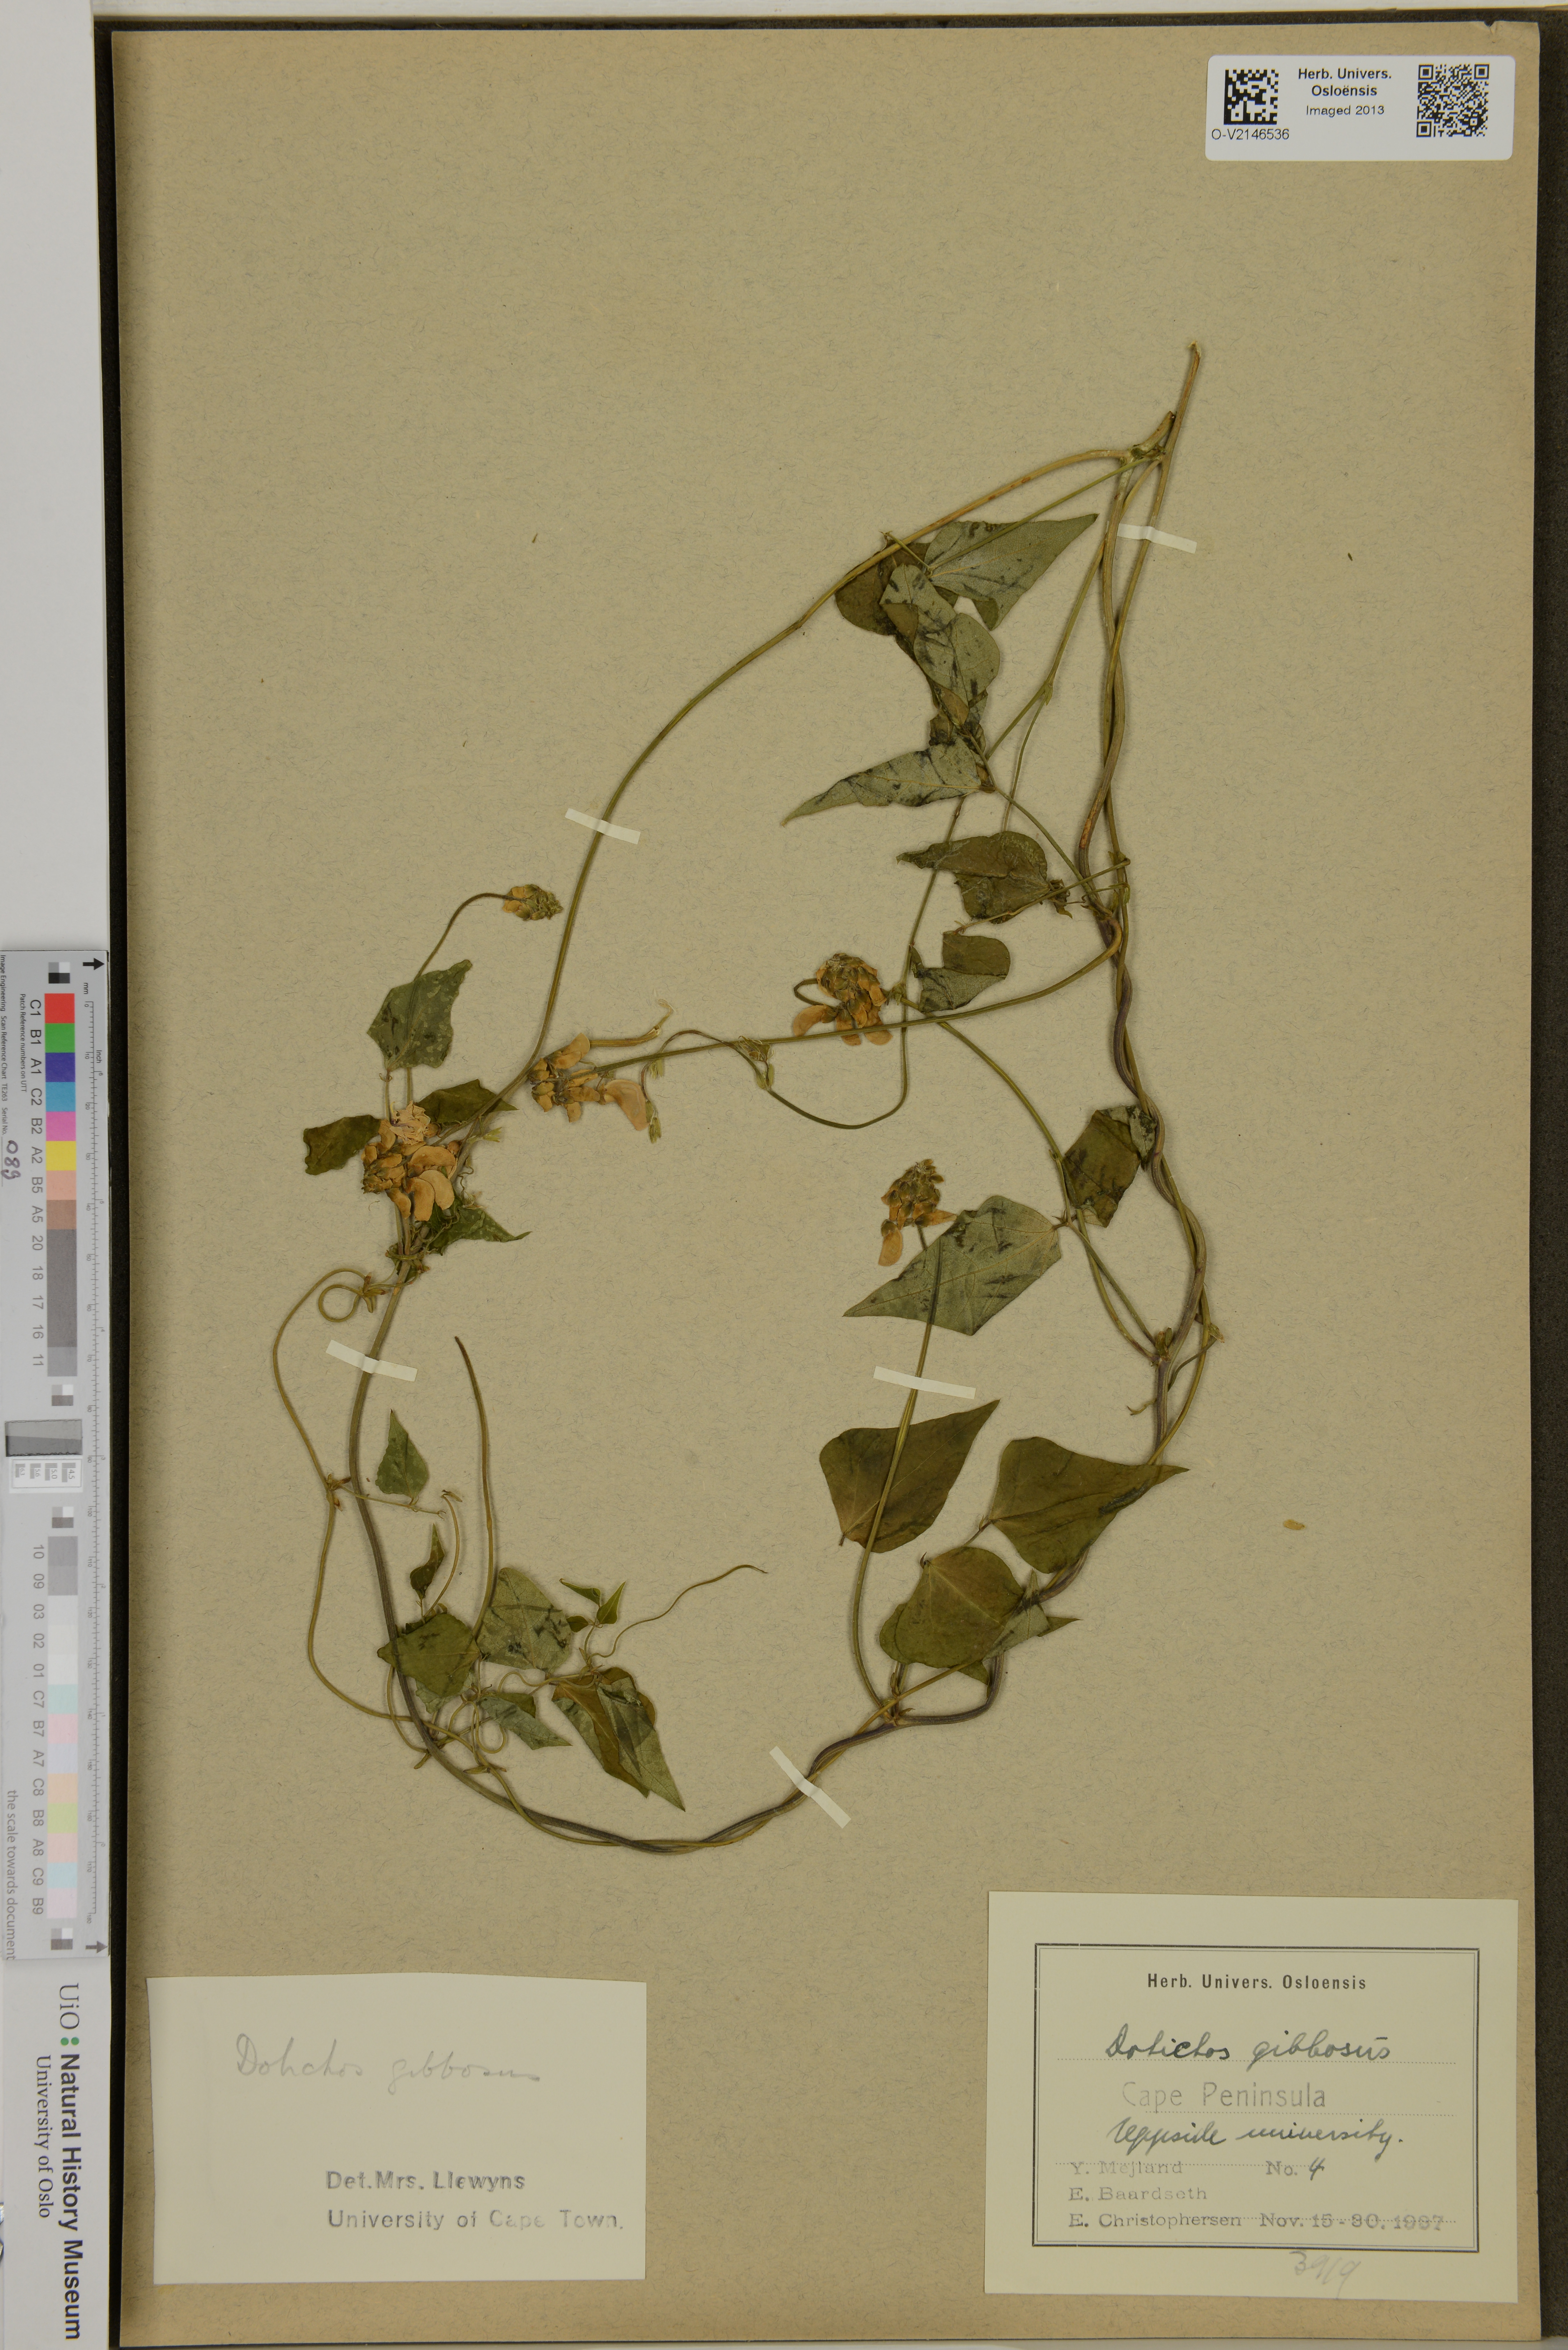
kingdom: Plantae
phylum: Tracheophyta
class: Magnoliopsida
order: Fabales
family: Fabaceae
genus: Dipogon
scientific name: Dipogon lignosus
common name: Okie bean
